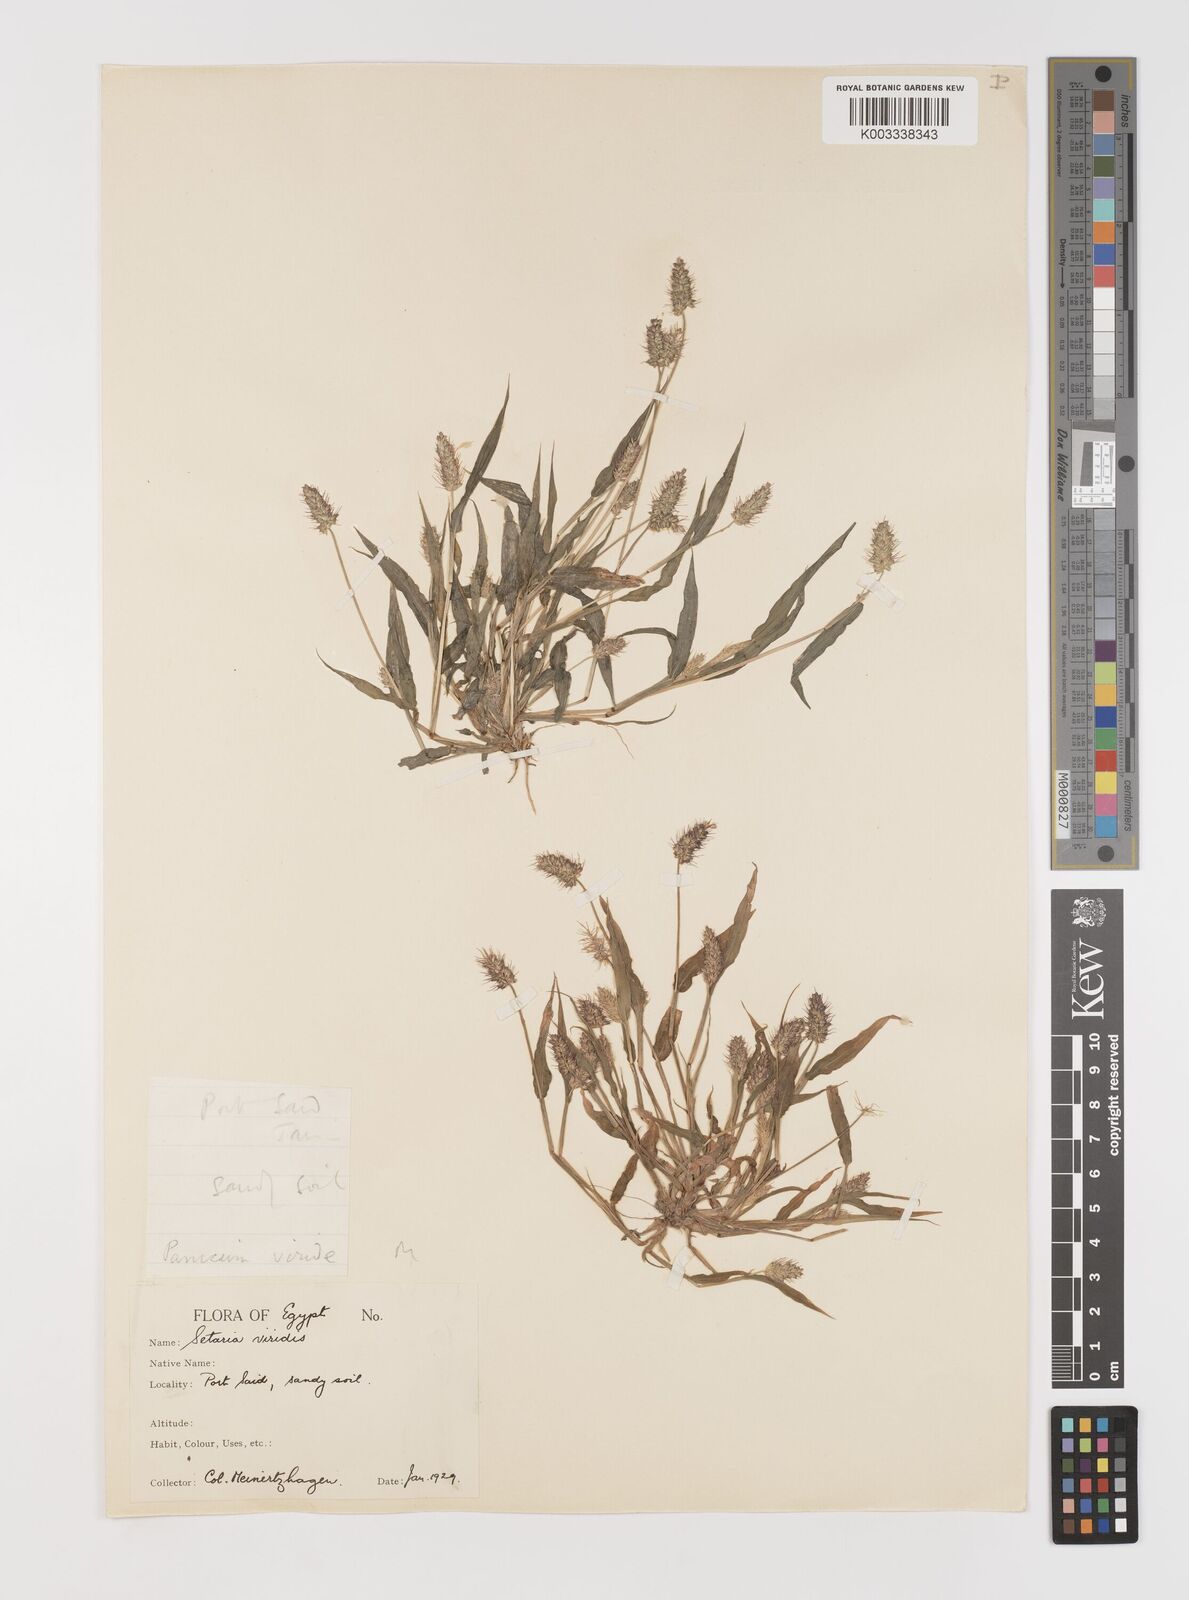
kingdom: Plantae
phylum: Tracheophyta
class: Liliopsida
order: Poales
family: Poaceae
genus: Setaria
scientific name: Setaria verticillata
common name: Hooked bristlegrass
